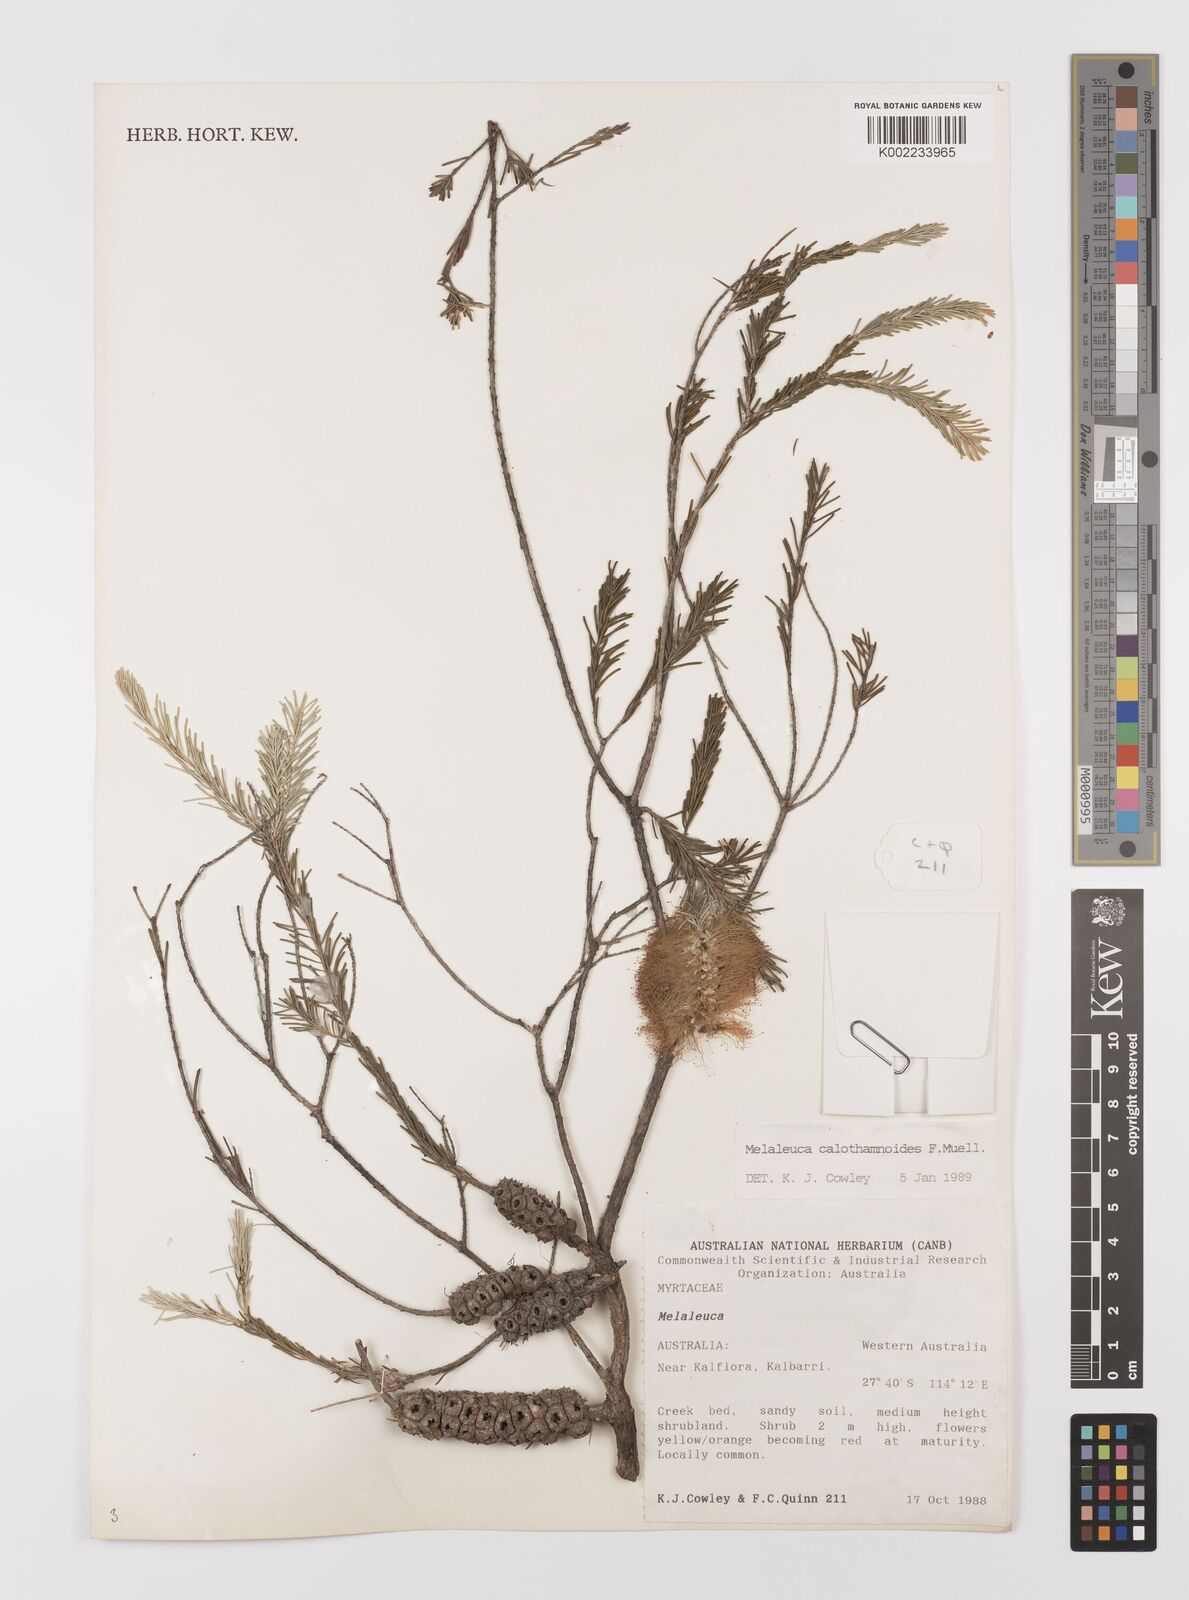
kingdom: Plantae
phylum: Tracheophyta
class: Magnoliopsida
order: Myrtales
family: Myrtaceae
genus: Melaleuca
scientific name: Melaleuca calothamnoides
